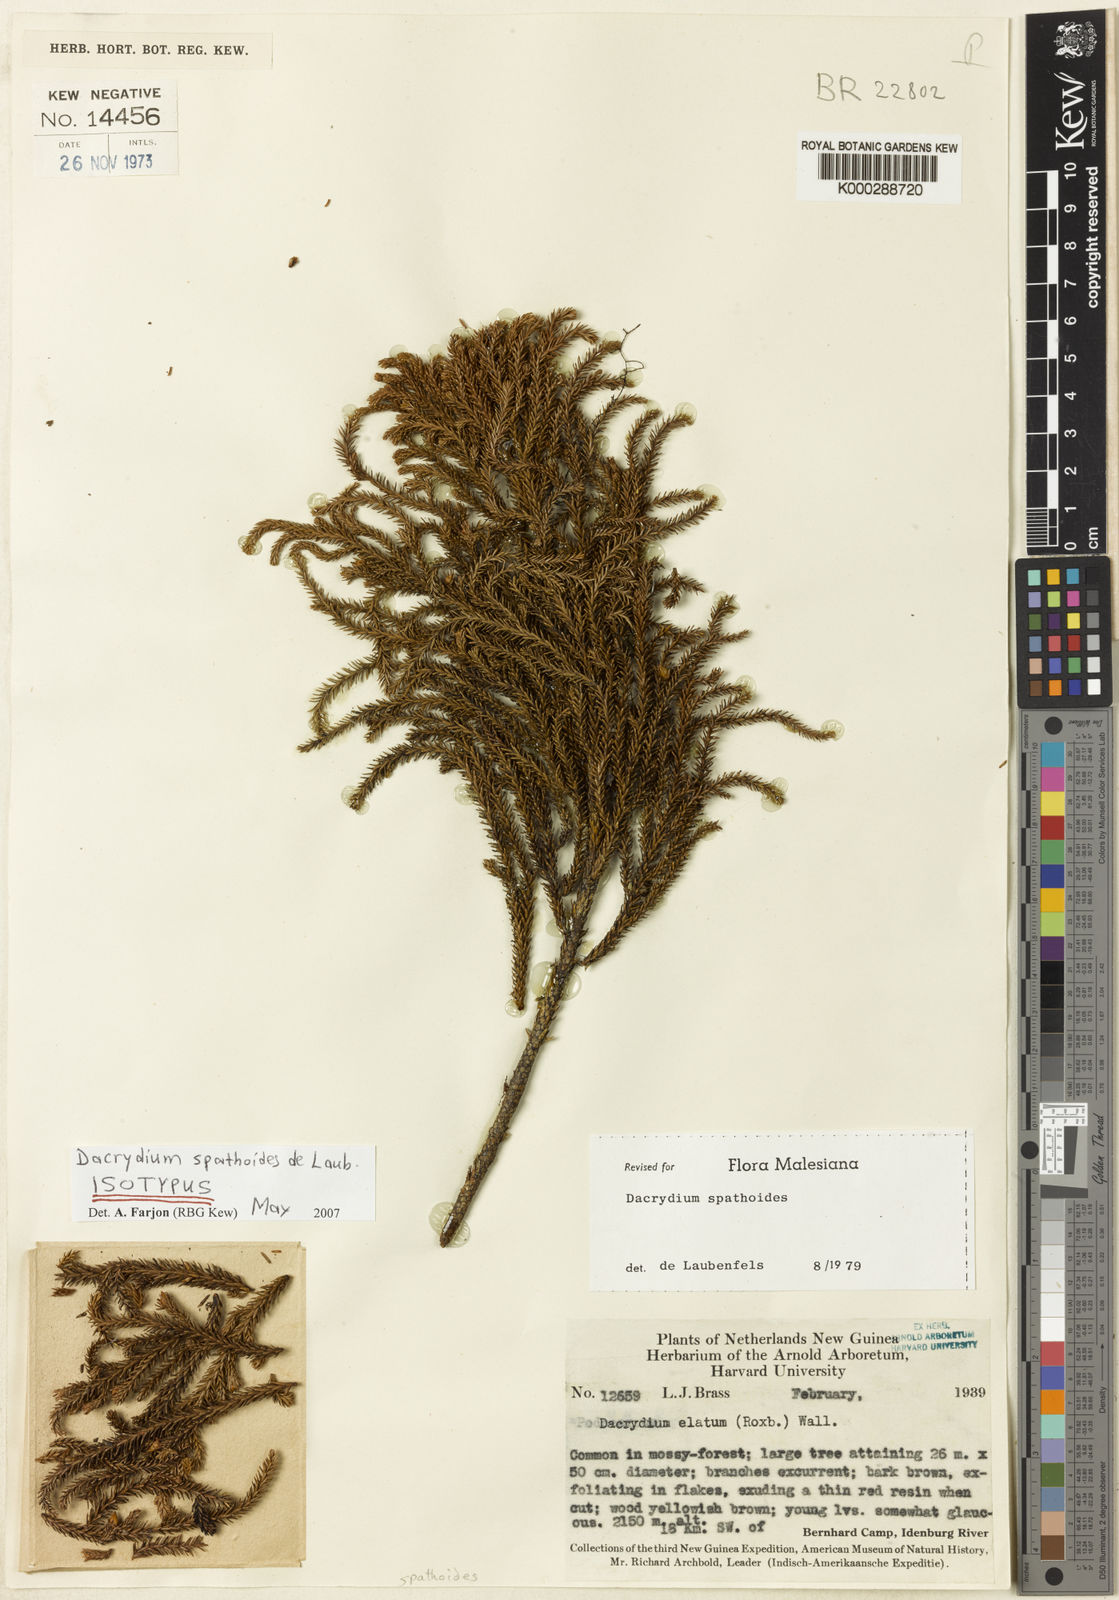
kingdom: Plantae
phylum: Tracheophyta
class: Pinopsida
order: Pinales
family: Podocarpaceae
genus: Dacrydium
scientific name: Dacrydium spathoides
